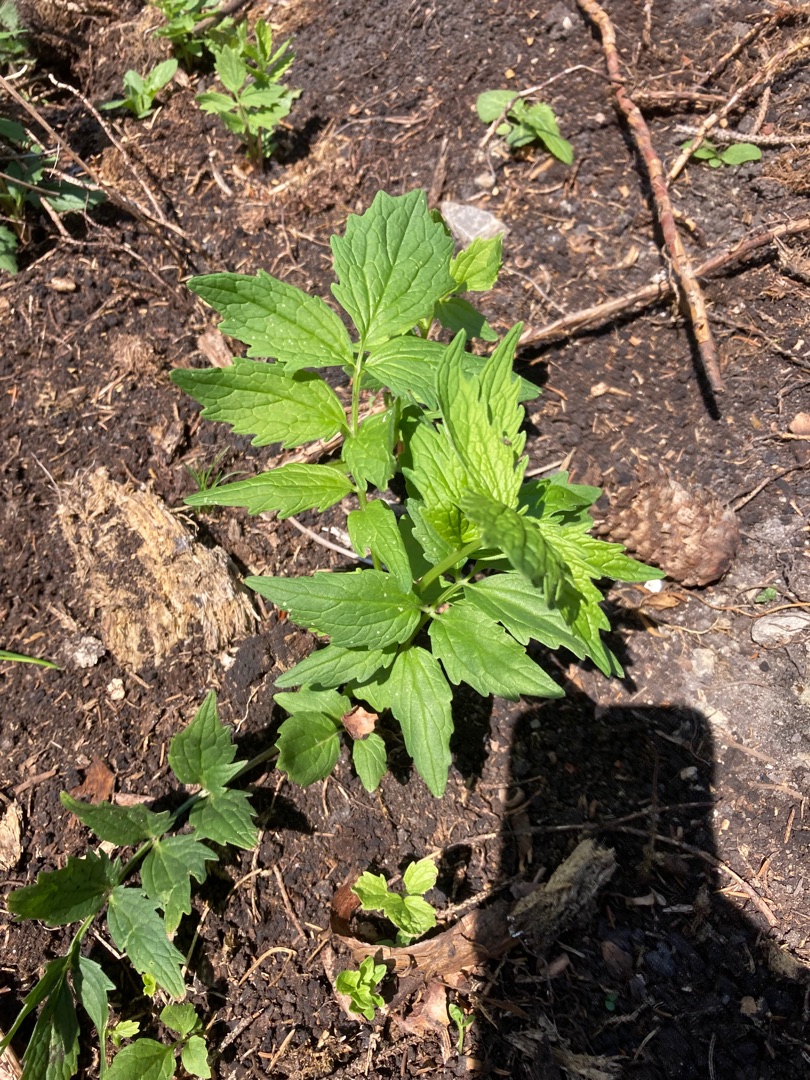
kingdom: Plantae
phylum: Tracheophyta
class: Magnoliopsida
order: Dipsacales
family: Caprifoliaceae
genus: Valeriana
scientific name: Valeriana sambucifolia
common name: Hyldebladet baldrian
